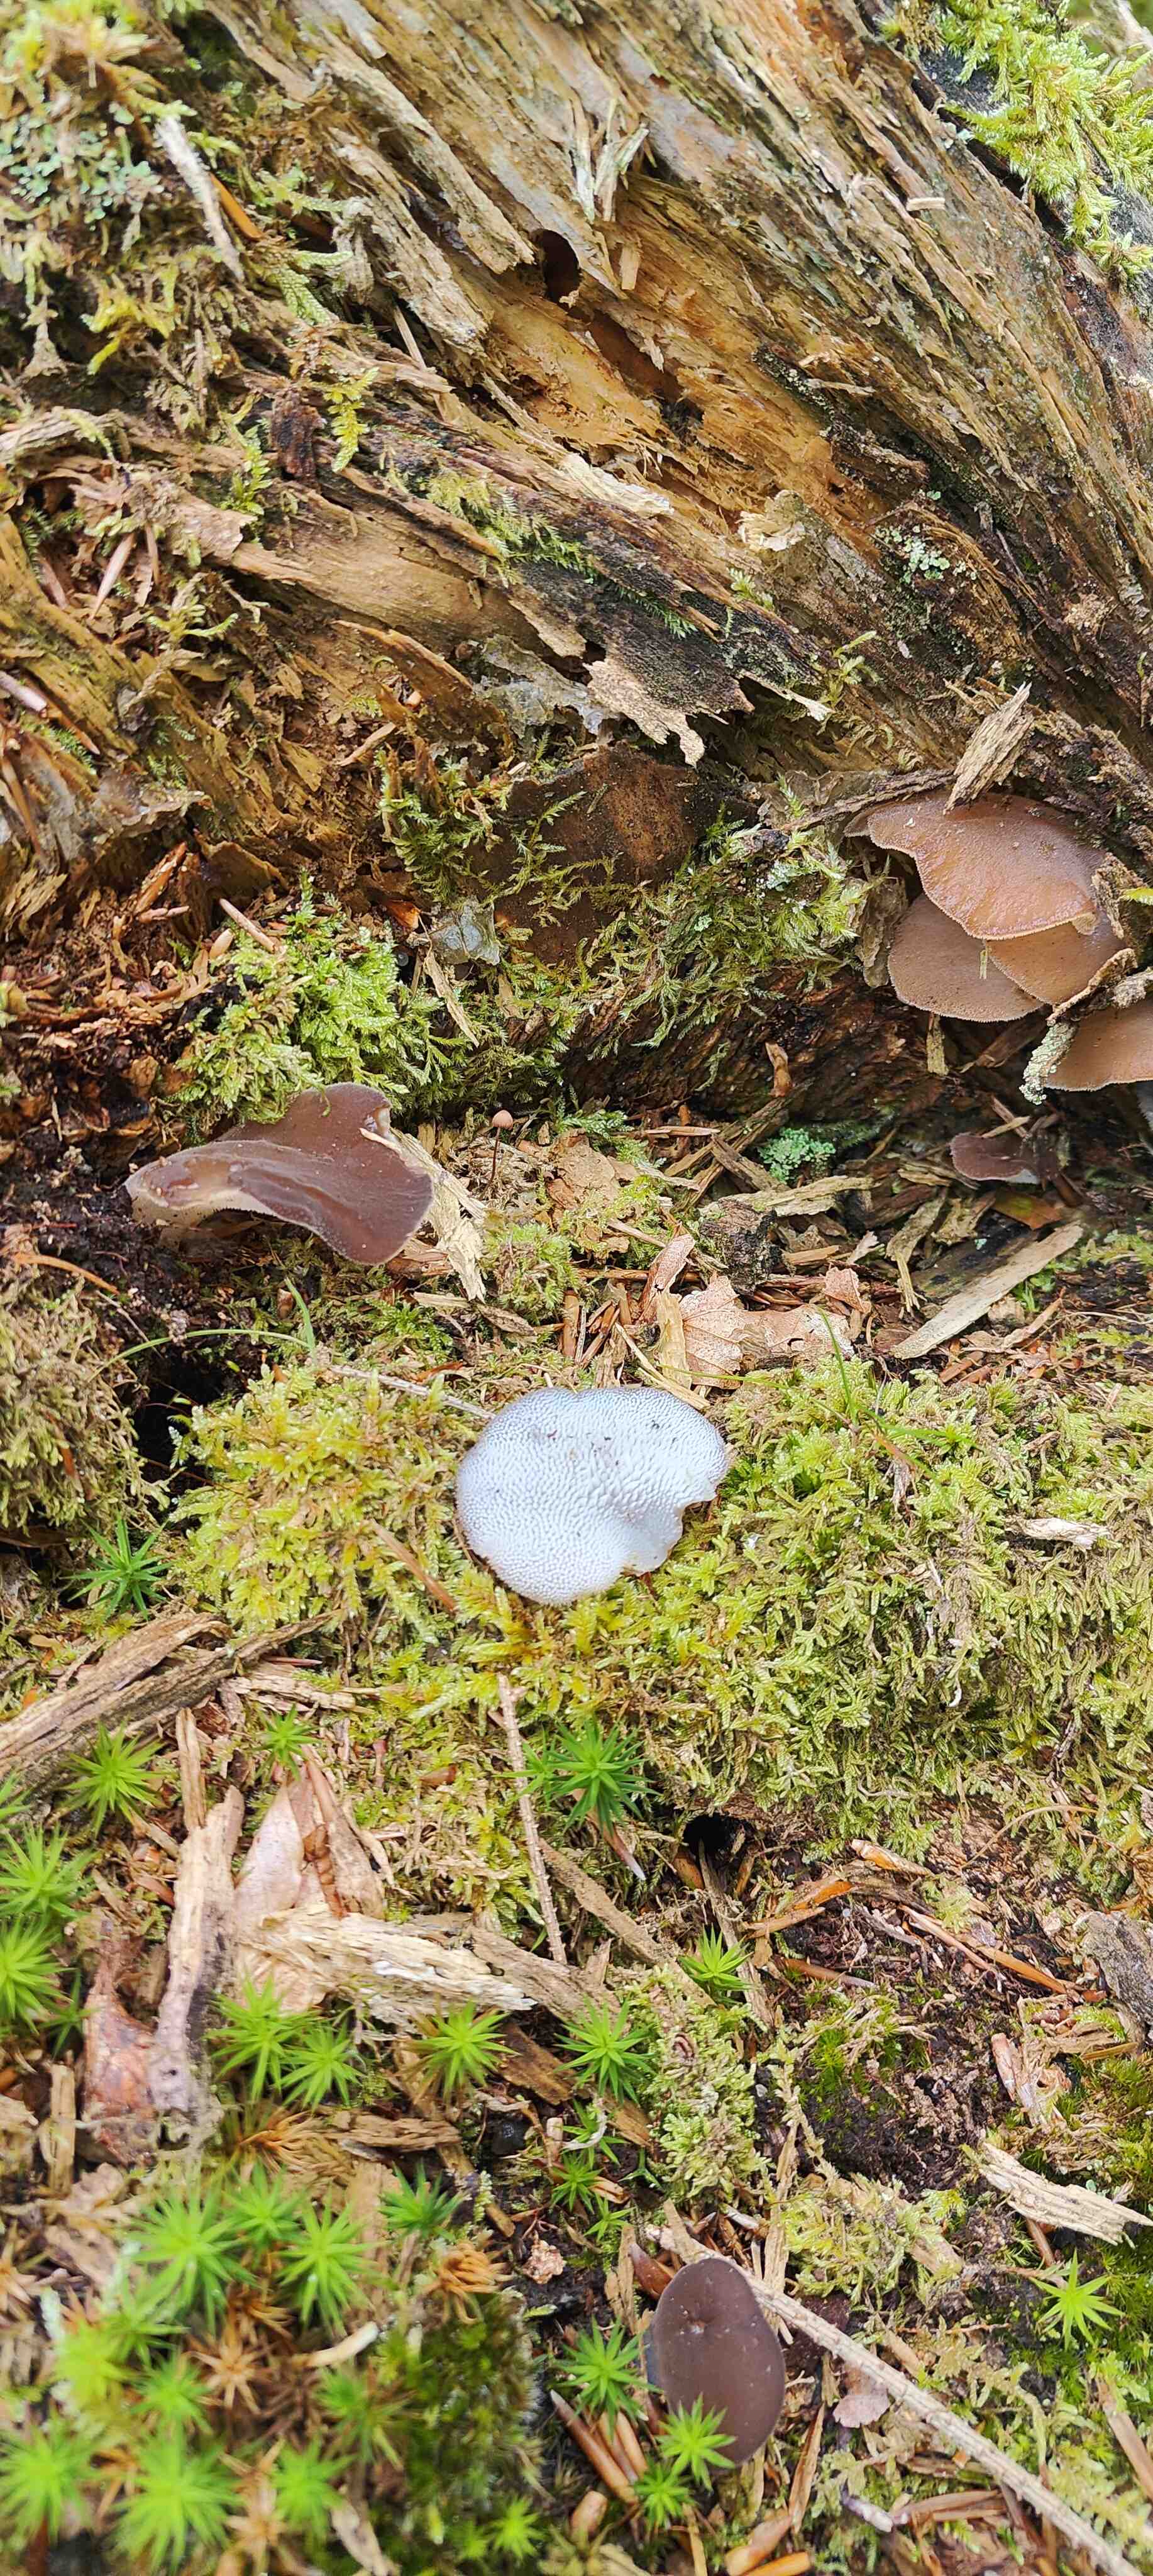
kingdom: Fungi
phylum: Basidiomycota
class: Agaricomycetes
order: Auriculariales
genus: Pseudohydnum
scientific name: Pseudohydnum gelatinosum
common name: bævretand
